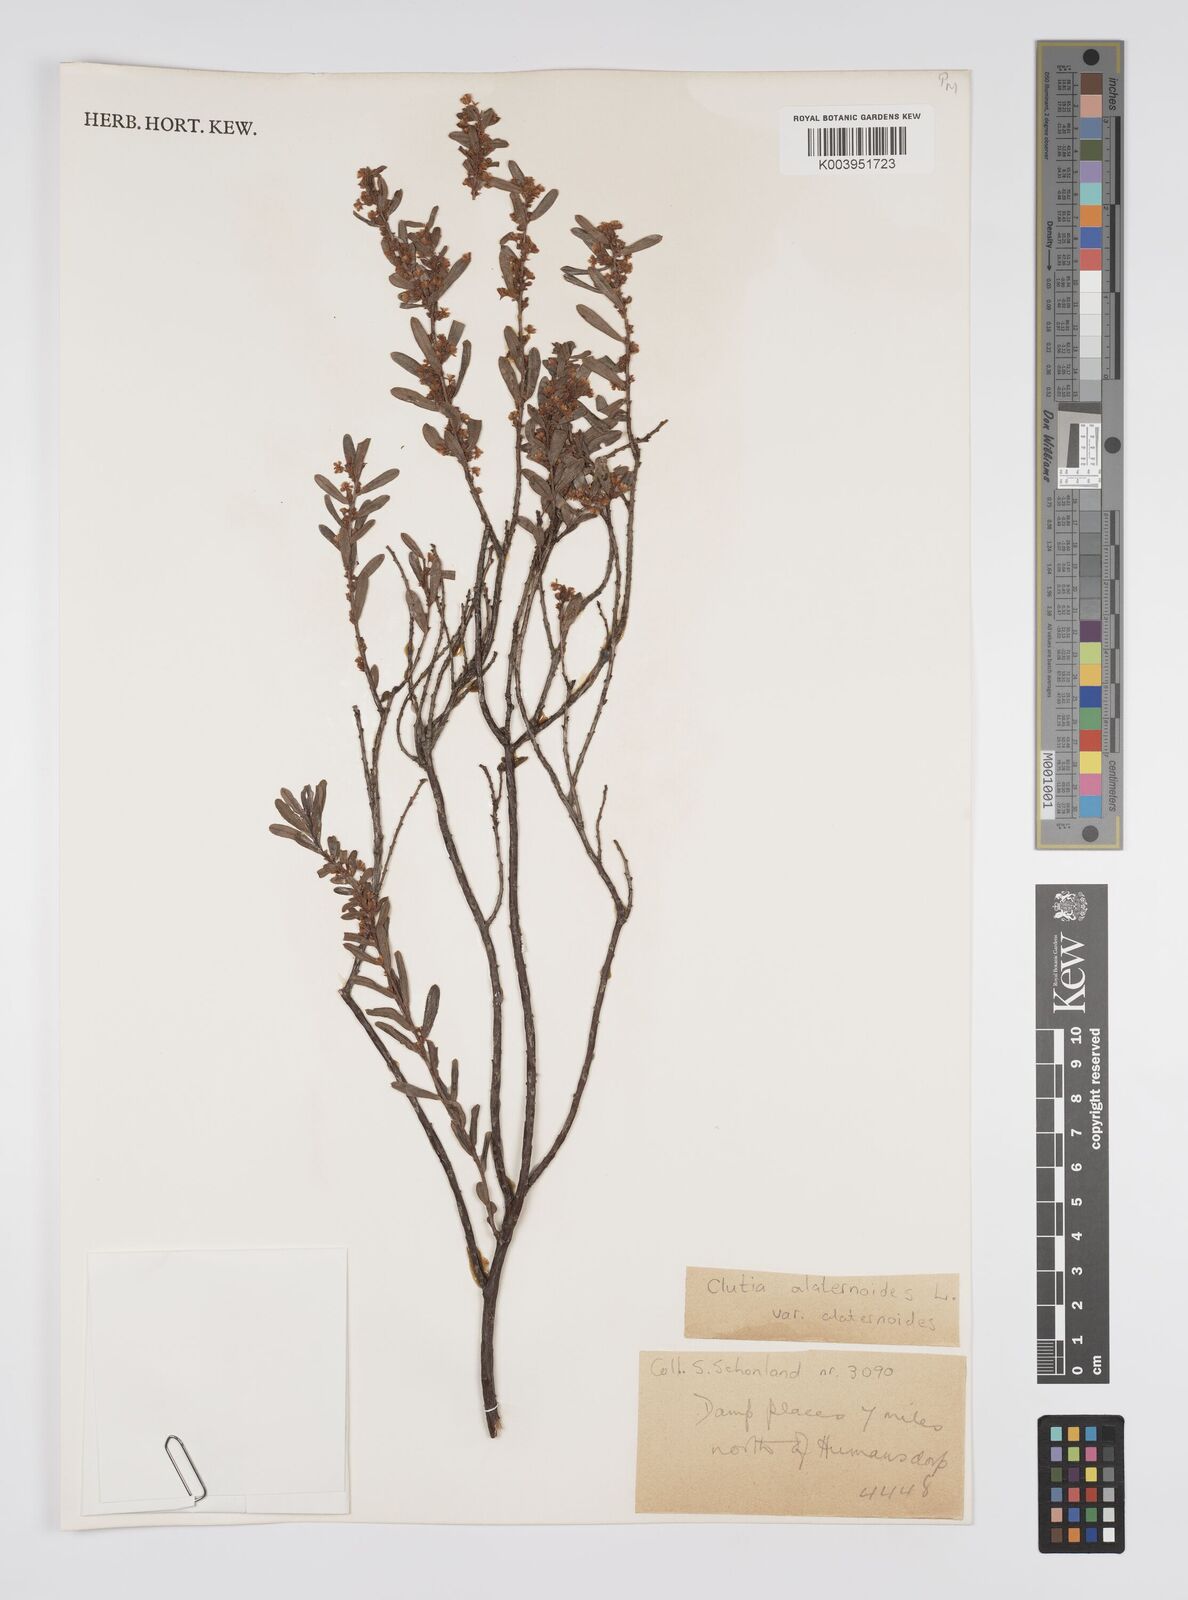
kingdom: Plantae
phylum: Tracheophyta
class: Magnoliopsida
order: Malpighiales
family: Peraceae
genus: Clutia
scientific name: Clutia alaternoides
